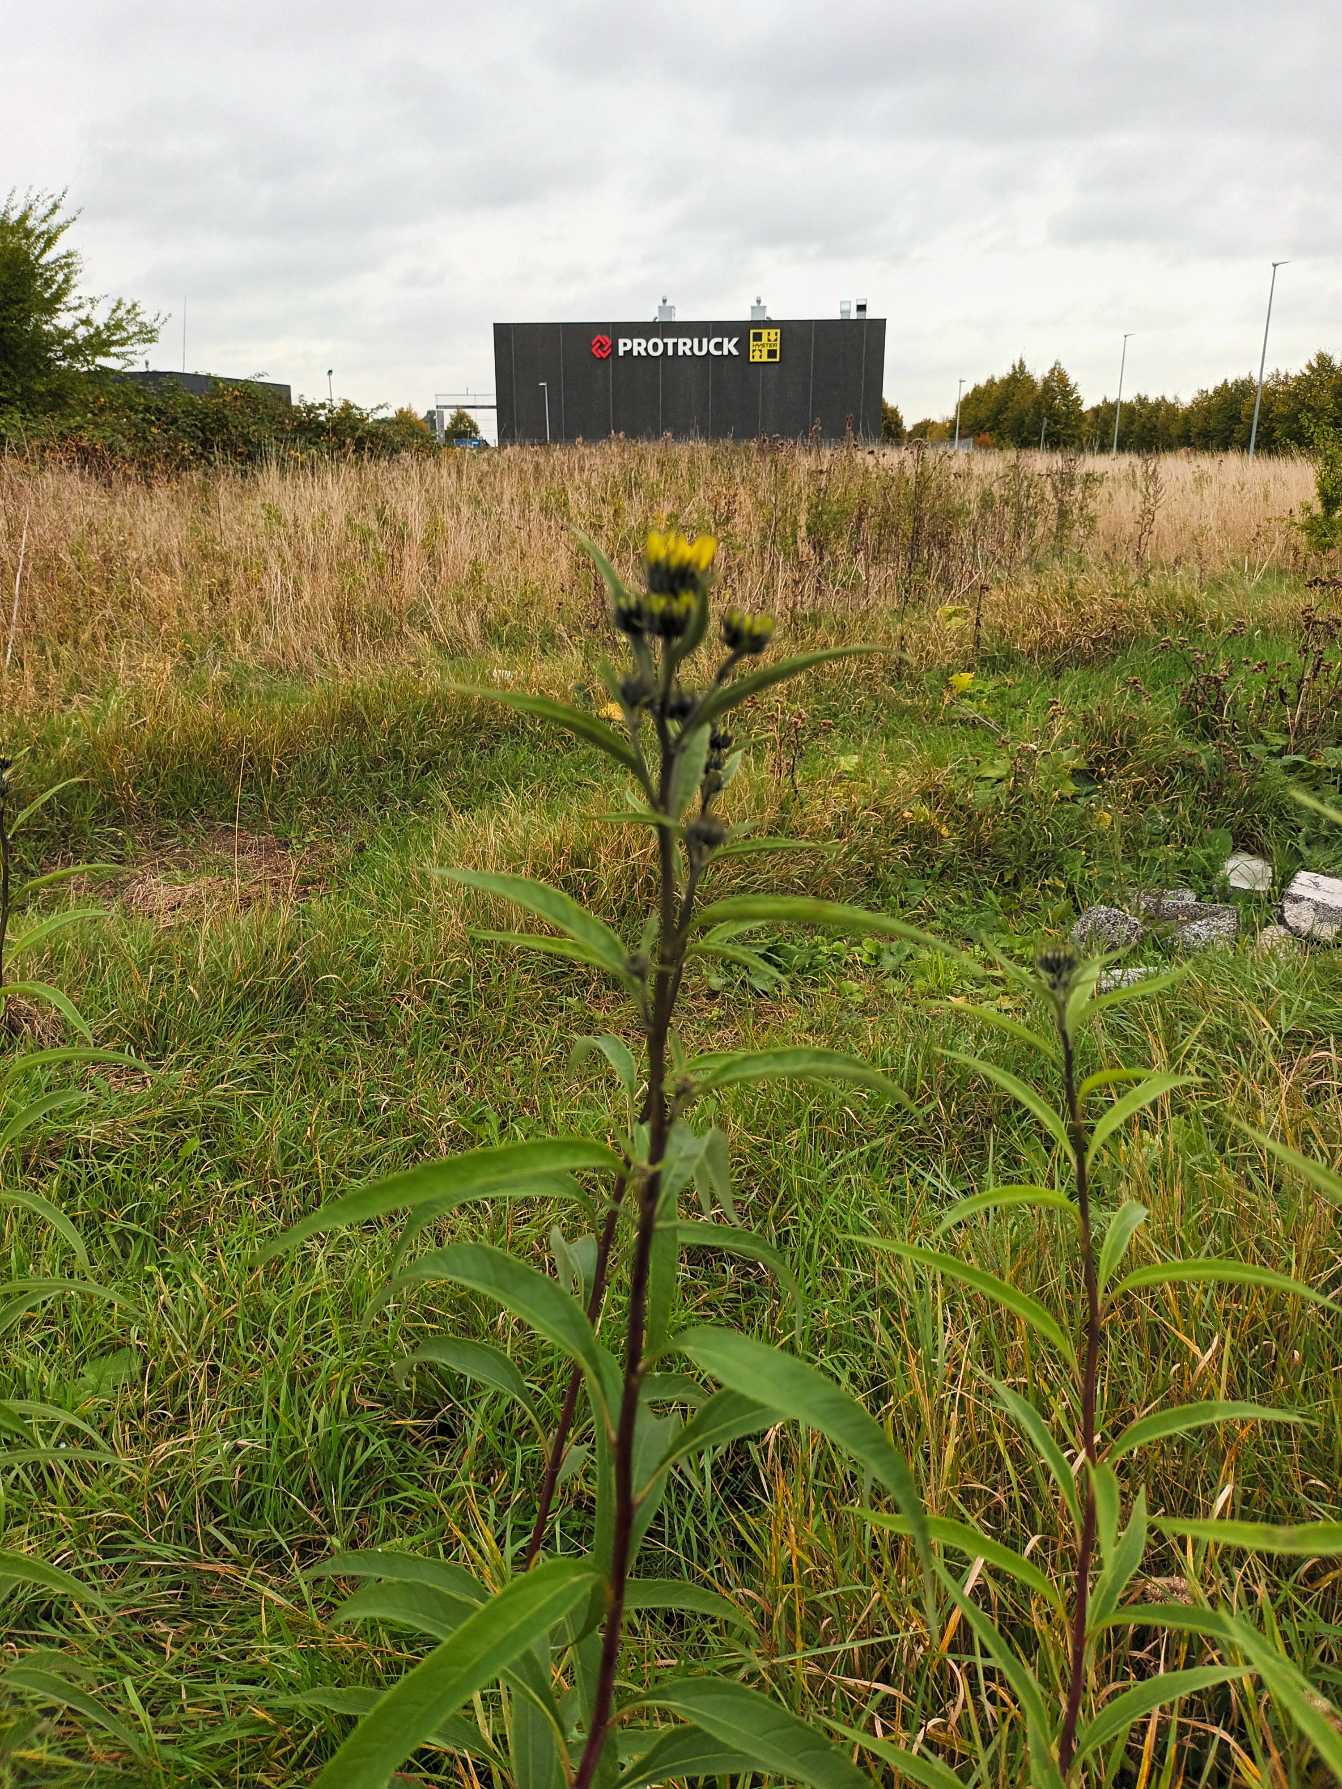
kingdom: Plantae
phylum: Tracheophyta
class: Magnoliopsida
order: Asterales
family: Asteraceae
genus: Helianthus
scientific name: Helianthus nuttallii
